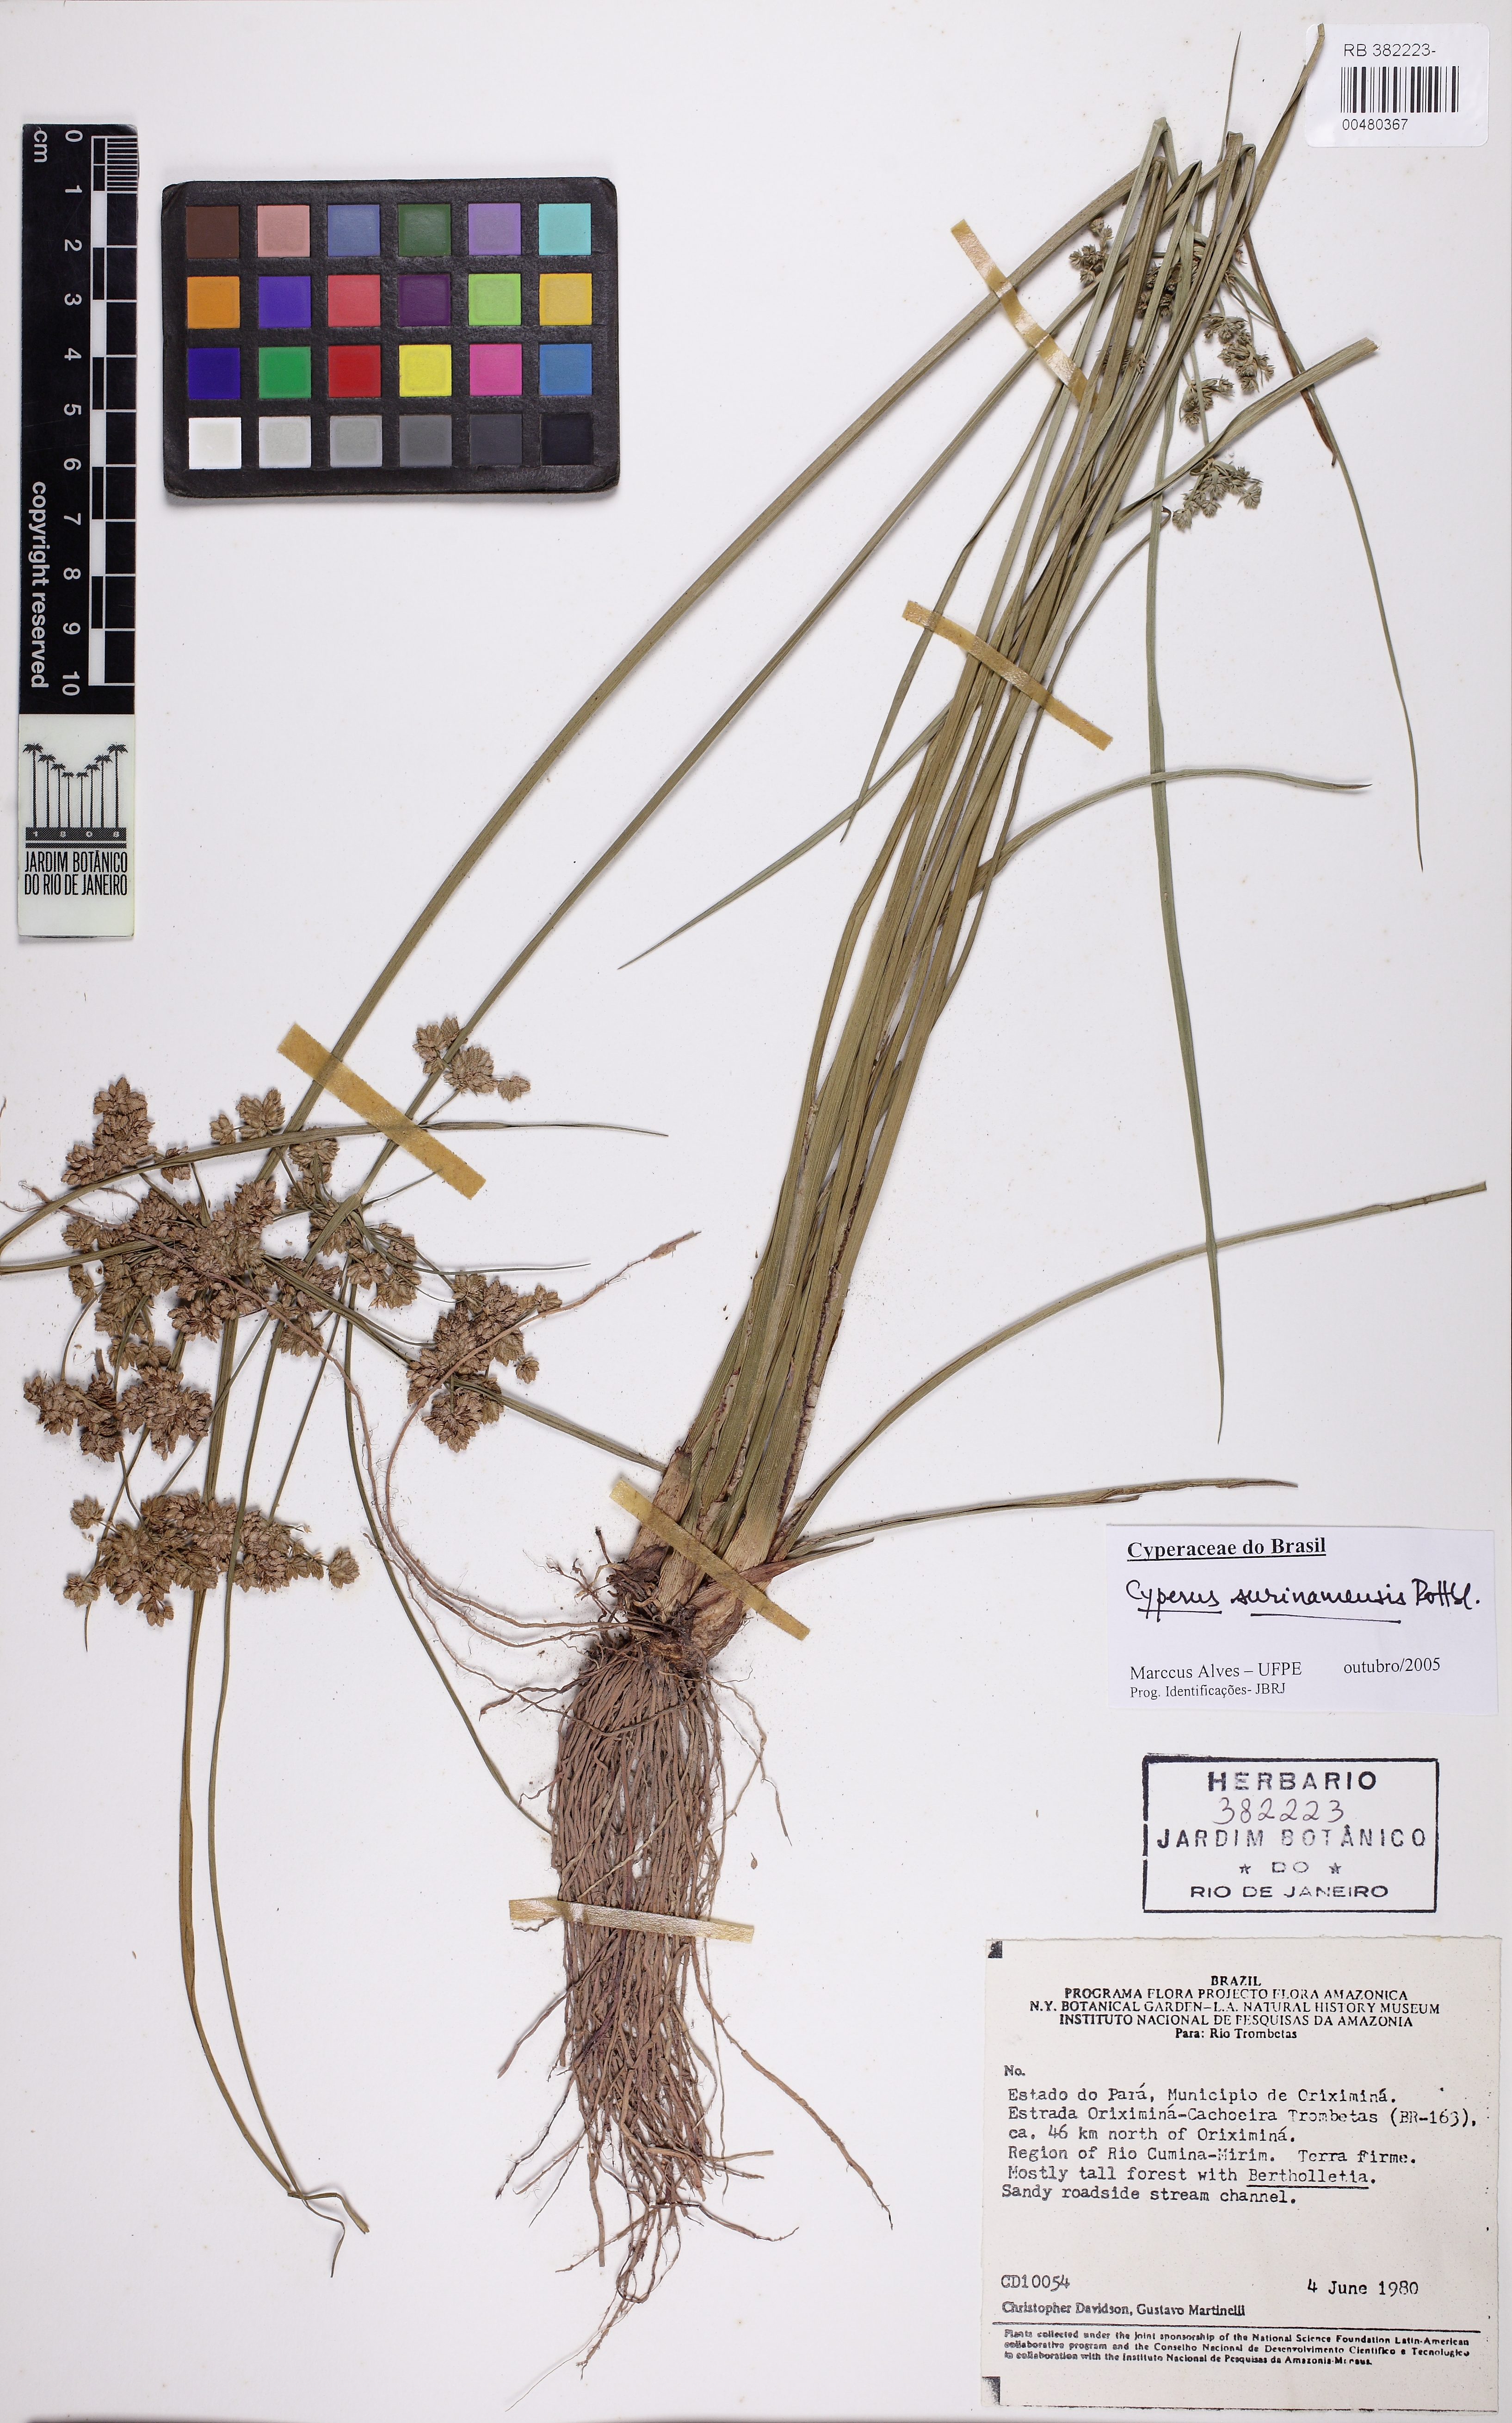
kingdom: Plantae
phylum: Tracheophyta
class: Liliopsida
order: Poales
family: Cyperaceae
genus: Cyperus
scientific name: Cyperus surinamensis
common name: Tropical flat sedge
